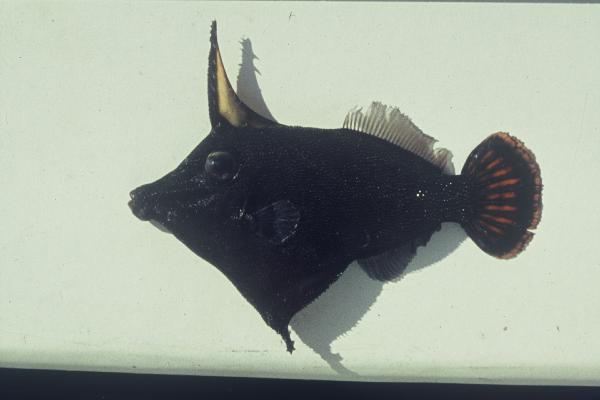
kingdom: Animalia
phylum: Chordata
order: Tetraodontiformes
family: Monacanthidae
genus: Pervagor
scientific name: Pervagor janthinosoma
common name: Blackbar filefish
